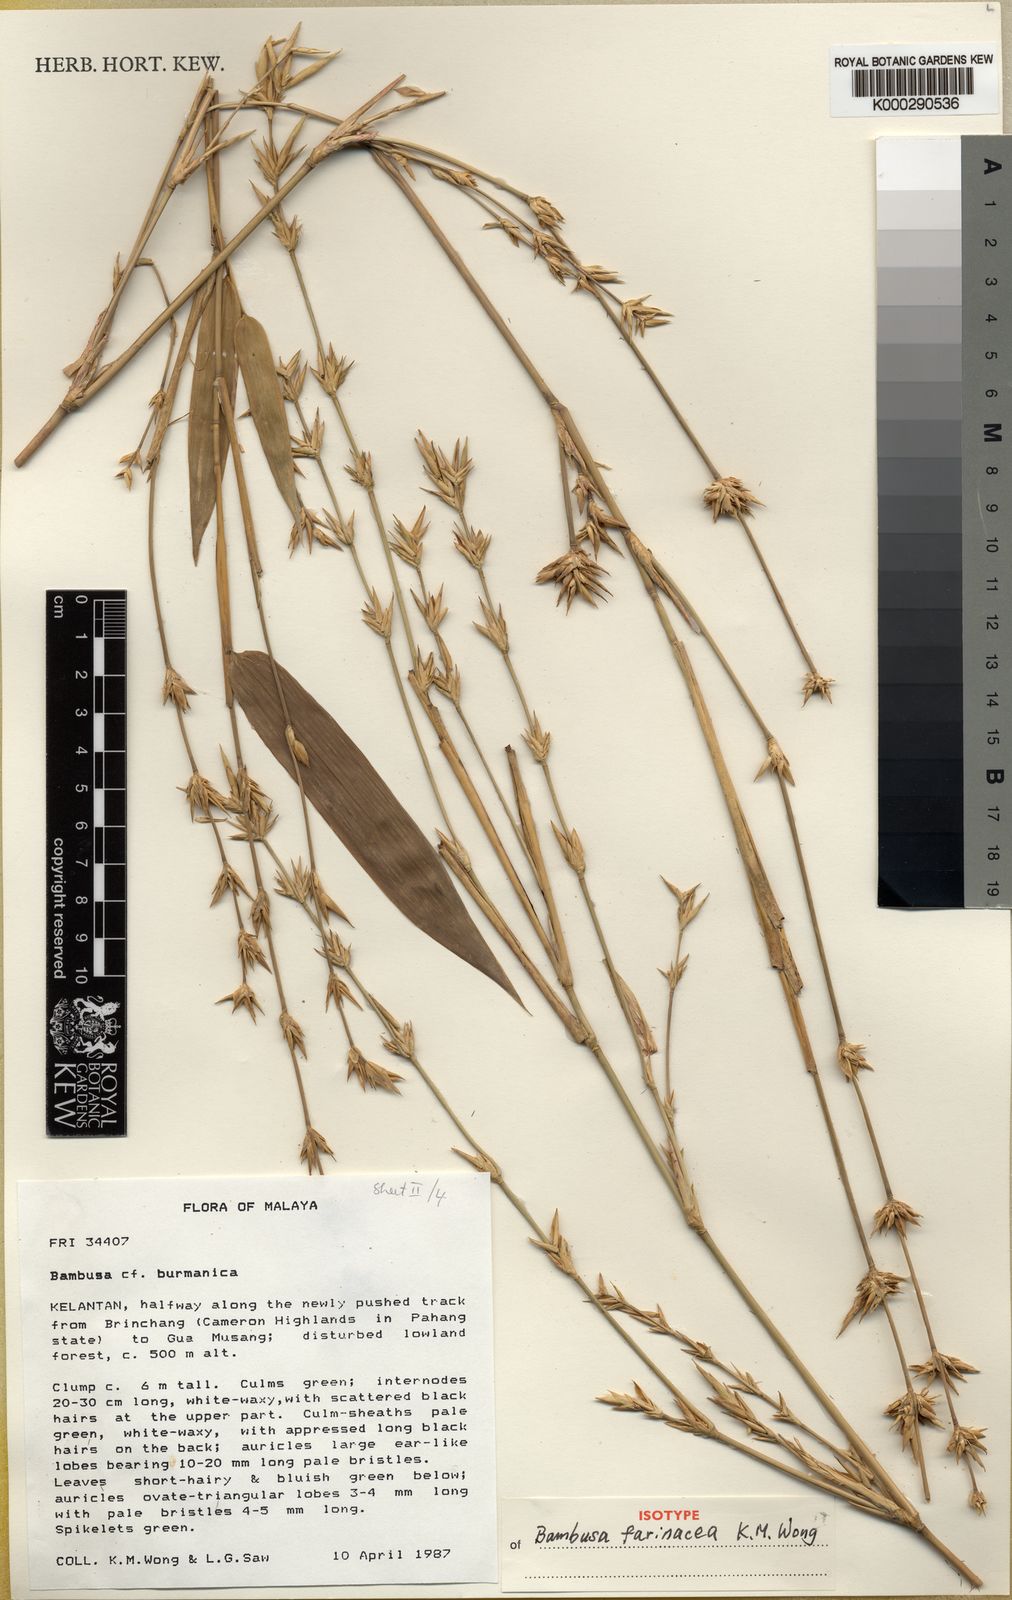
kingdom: Plantae
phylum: Tracheophyta
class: Liliopsida
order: Poales
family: Poaceae
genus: Bambusa
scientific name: Bambusa farinacea
